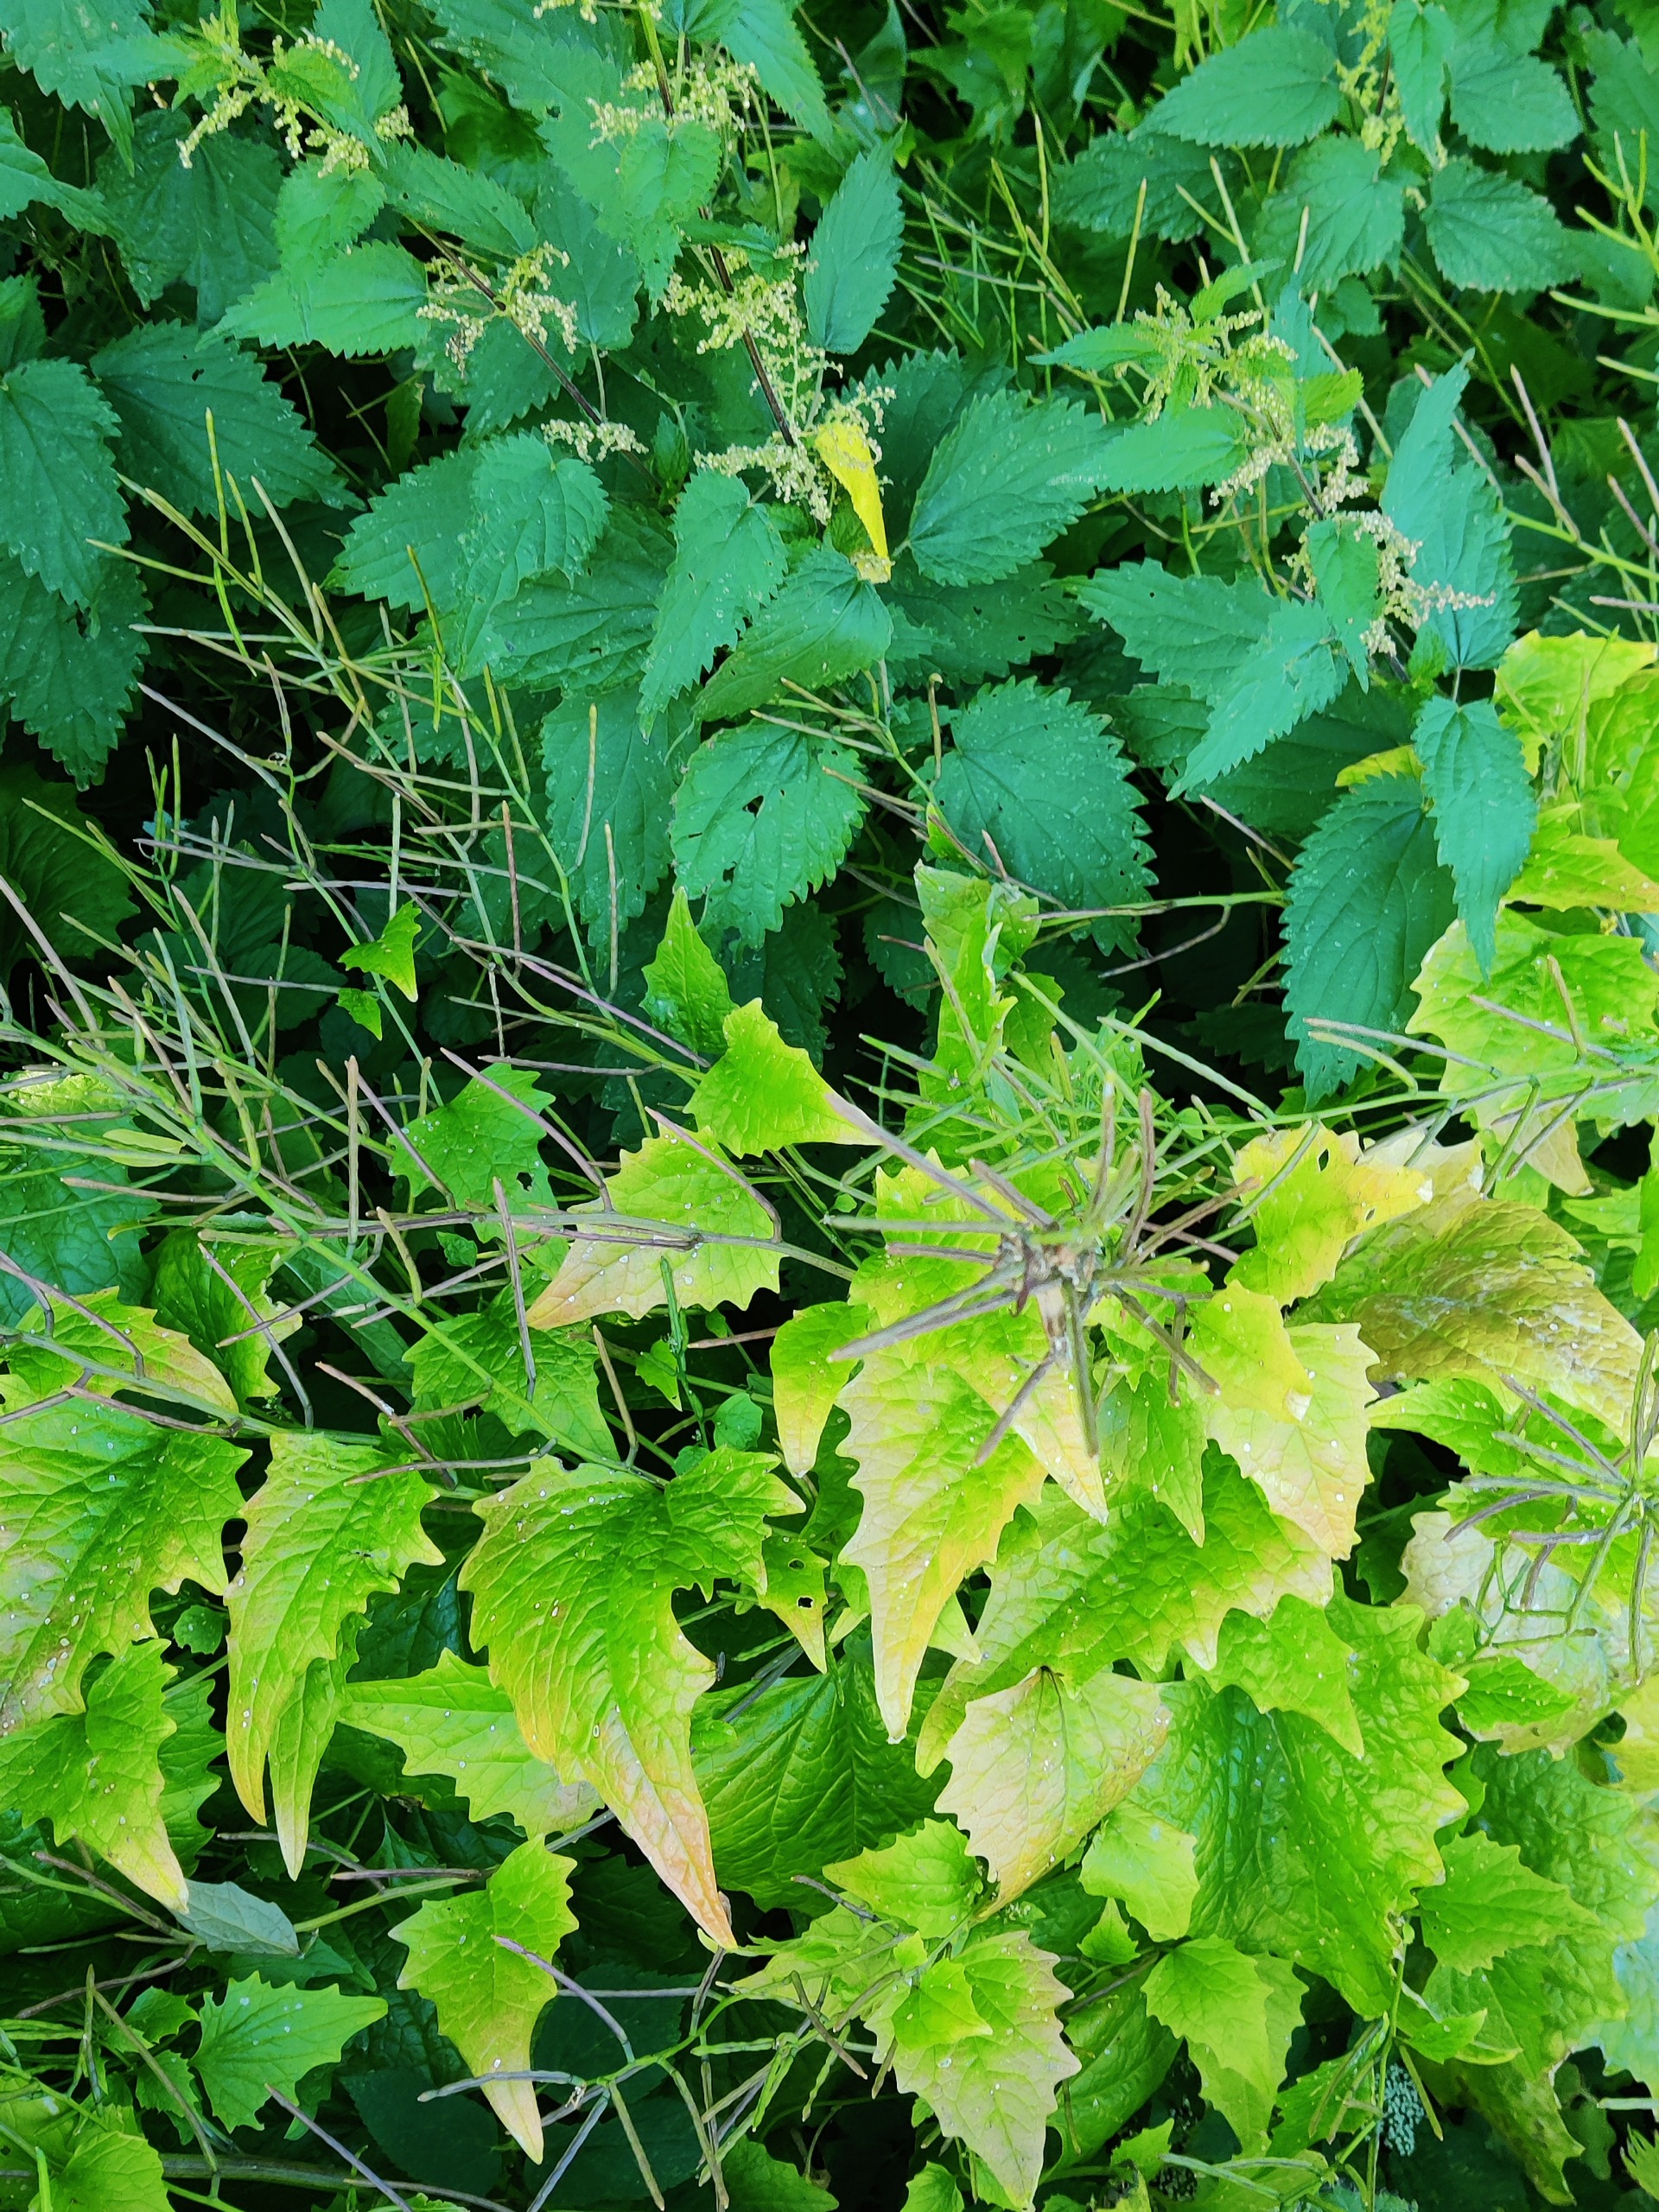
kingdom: Plantae
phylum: Tracheophyta
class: Magnoliopsida
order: Brassicales
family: Brassicaceae
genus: Alliaria
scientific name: Alliaria petiolata
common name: Løgkarse
